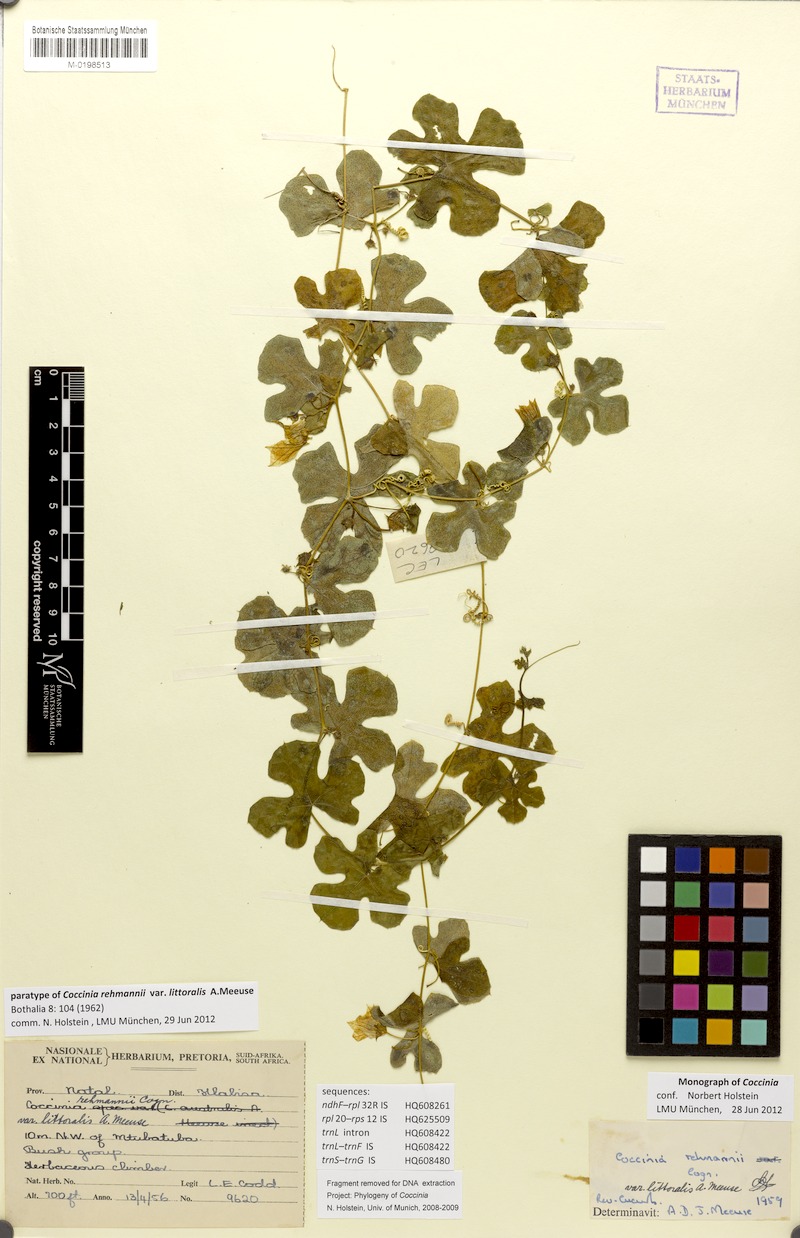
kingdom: Plantae
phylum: Tracheophyta
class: Magnoliopsida
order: Cucurbitales
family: Cucurbitaceae
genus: Coccinia
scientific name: Coccinia rehmannii
